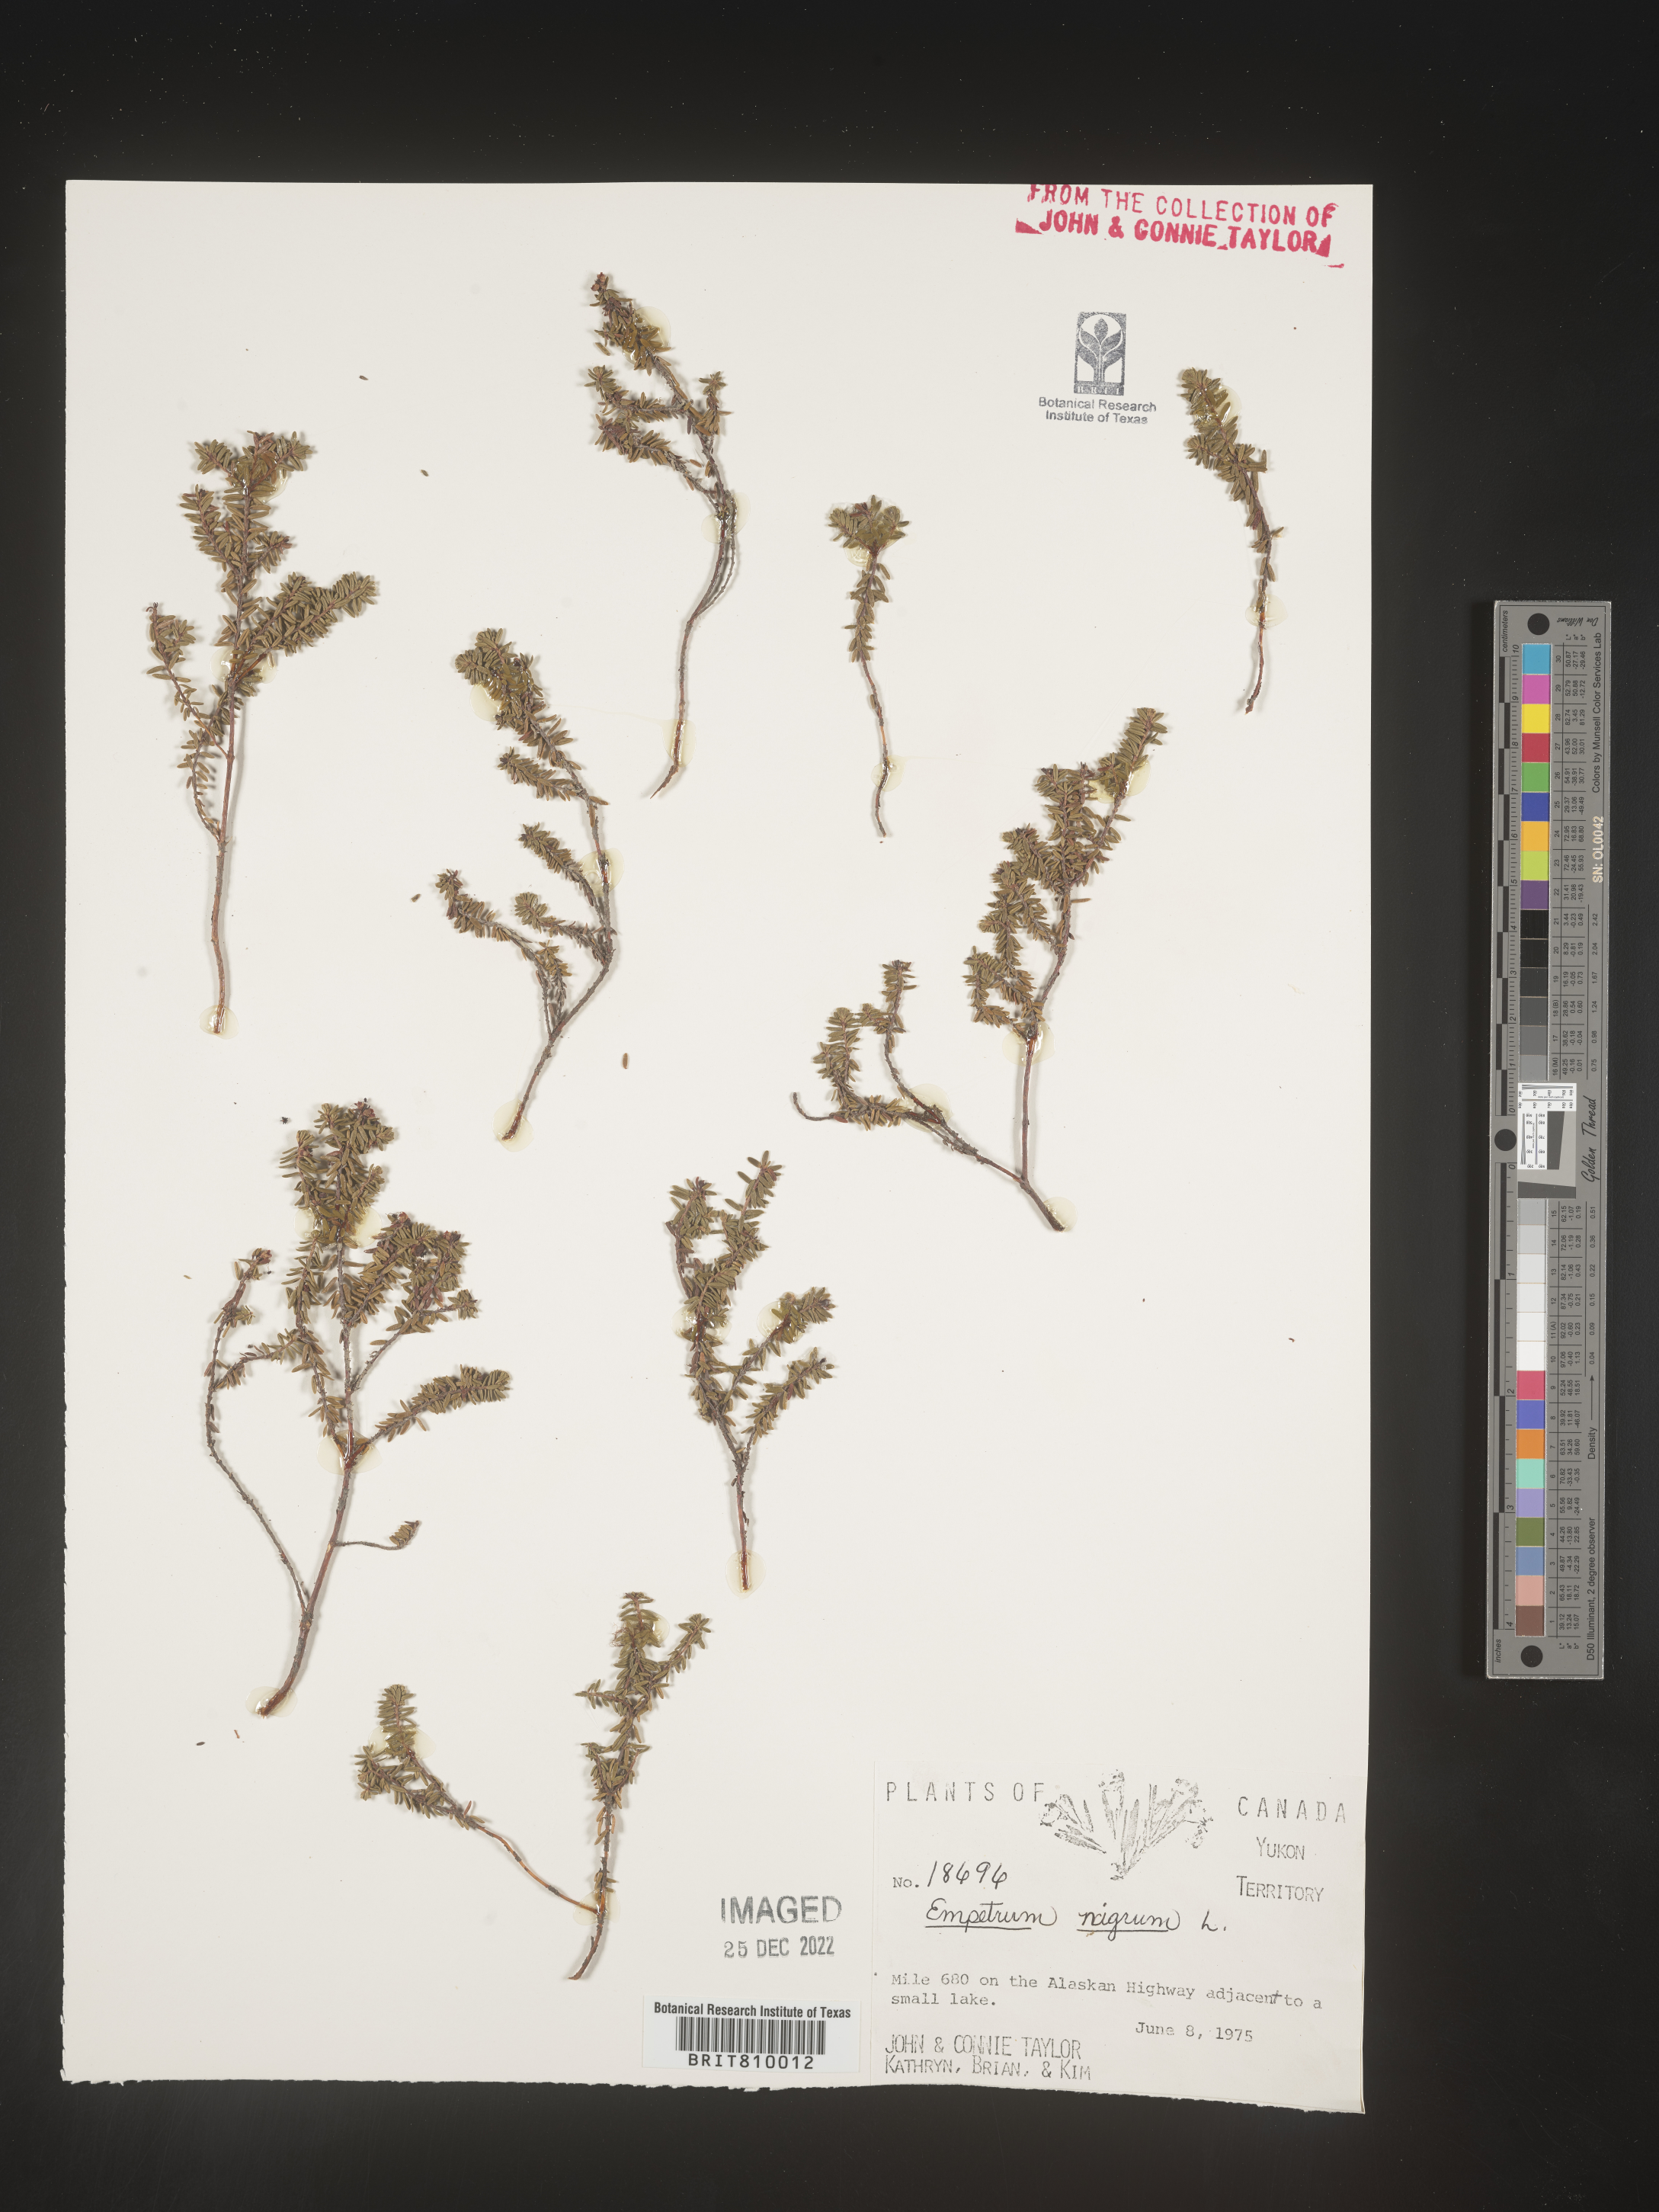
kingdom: Plantae
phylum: Tracheophyta
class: Magnoliopsida
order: Ericales
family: Ericaceae
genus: Empetrum
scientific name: Empetrum
